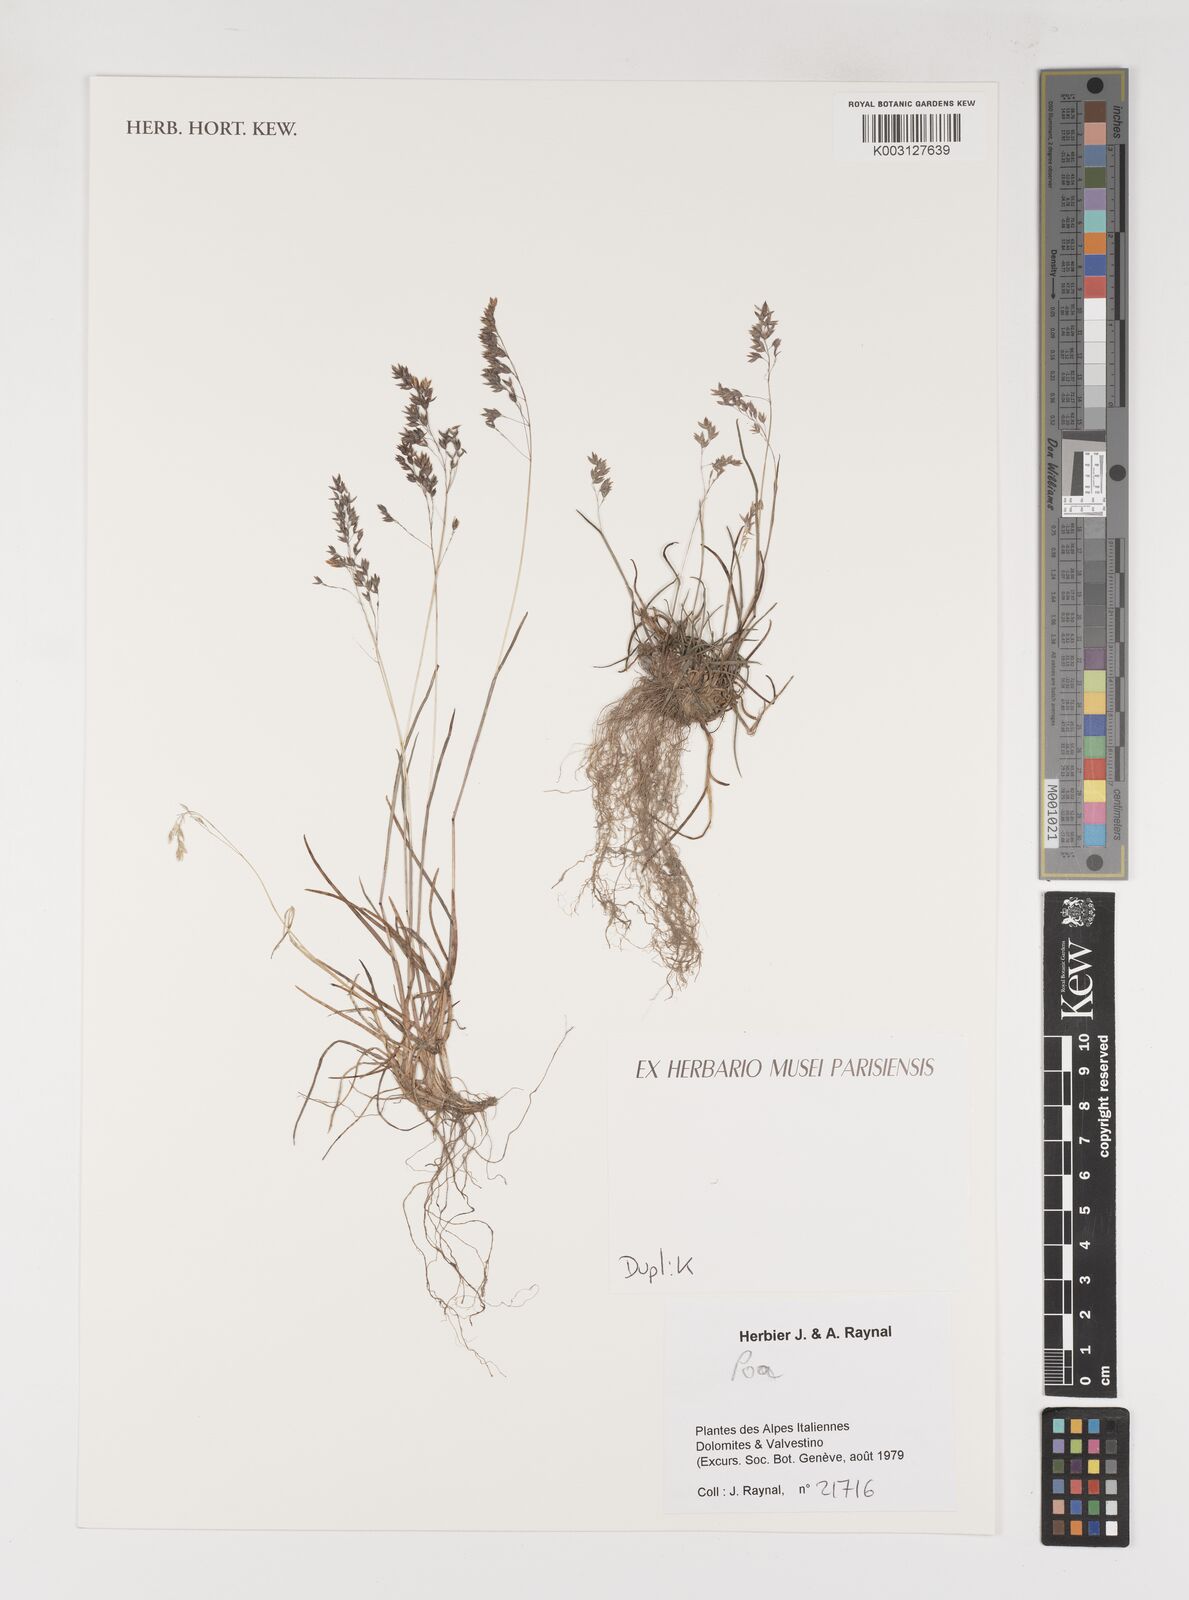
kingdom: Plantae
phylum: Tracheophyta
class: Liliopsida
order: Poales
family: Poaceae
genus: Poa
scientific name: Poa
